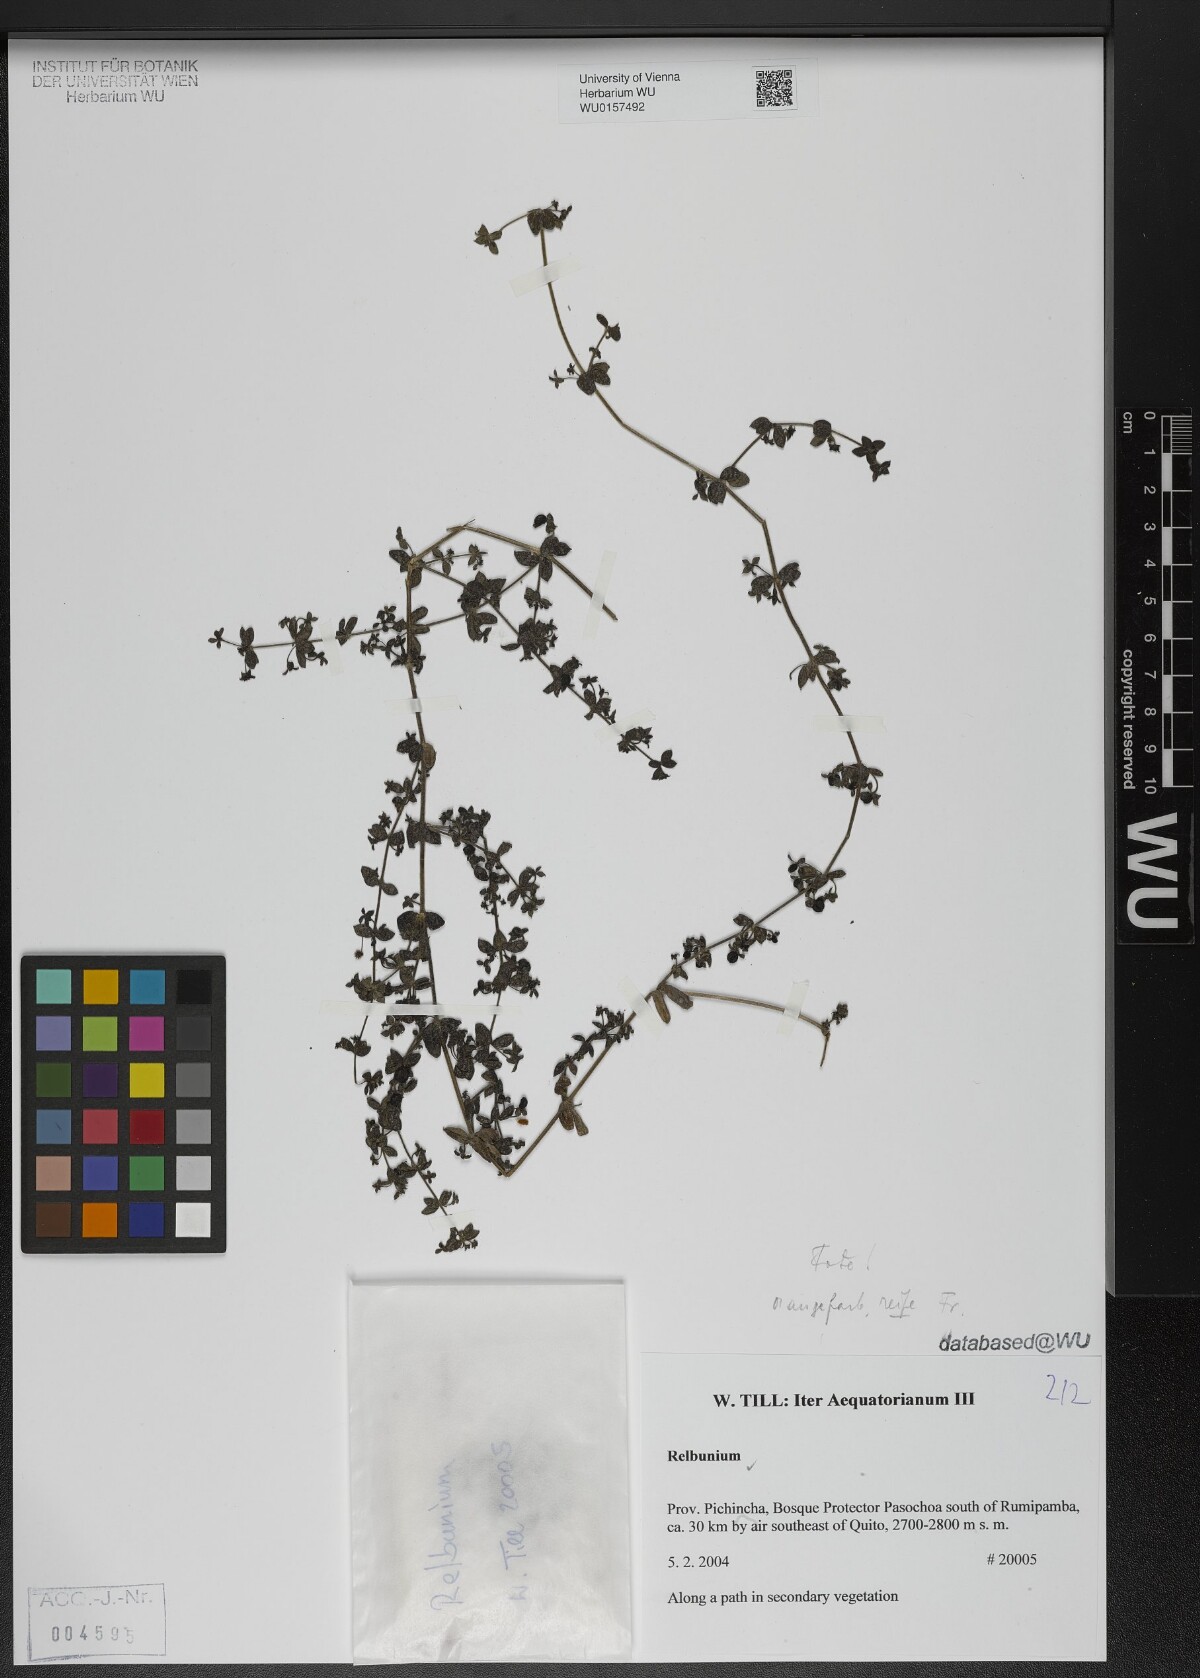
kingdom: Plantae
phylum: Tracheophyta
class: Magnoliopsida
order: Gentianales
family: Rubiaceae
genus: Galium
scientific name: Galium
